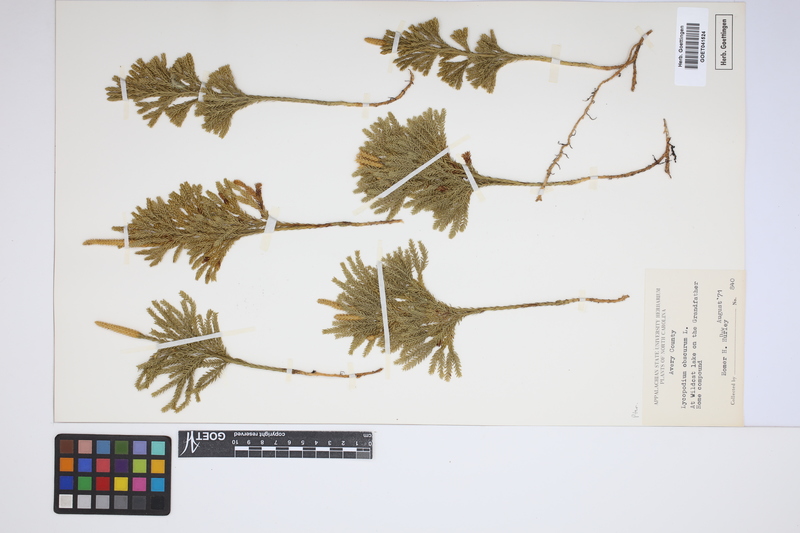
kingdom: Plantae
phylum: Tracheophyta
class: Lycopodiopsida
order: Lycopodiales
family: Lycopodiaceae
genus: Dendrolycopodium
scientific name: Dendrolycopodium obscurum
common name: Common ground-pine
